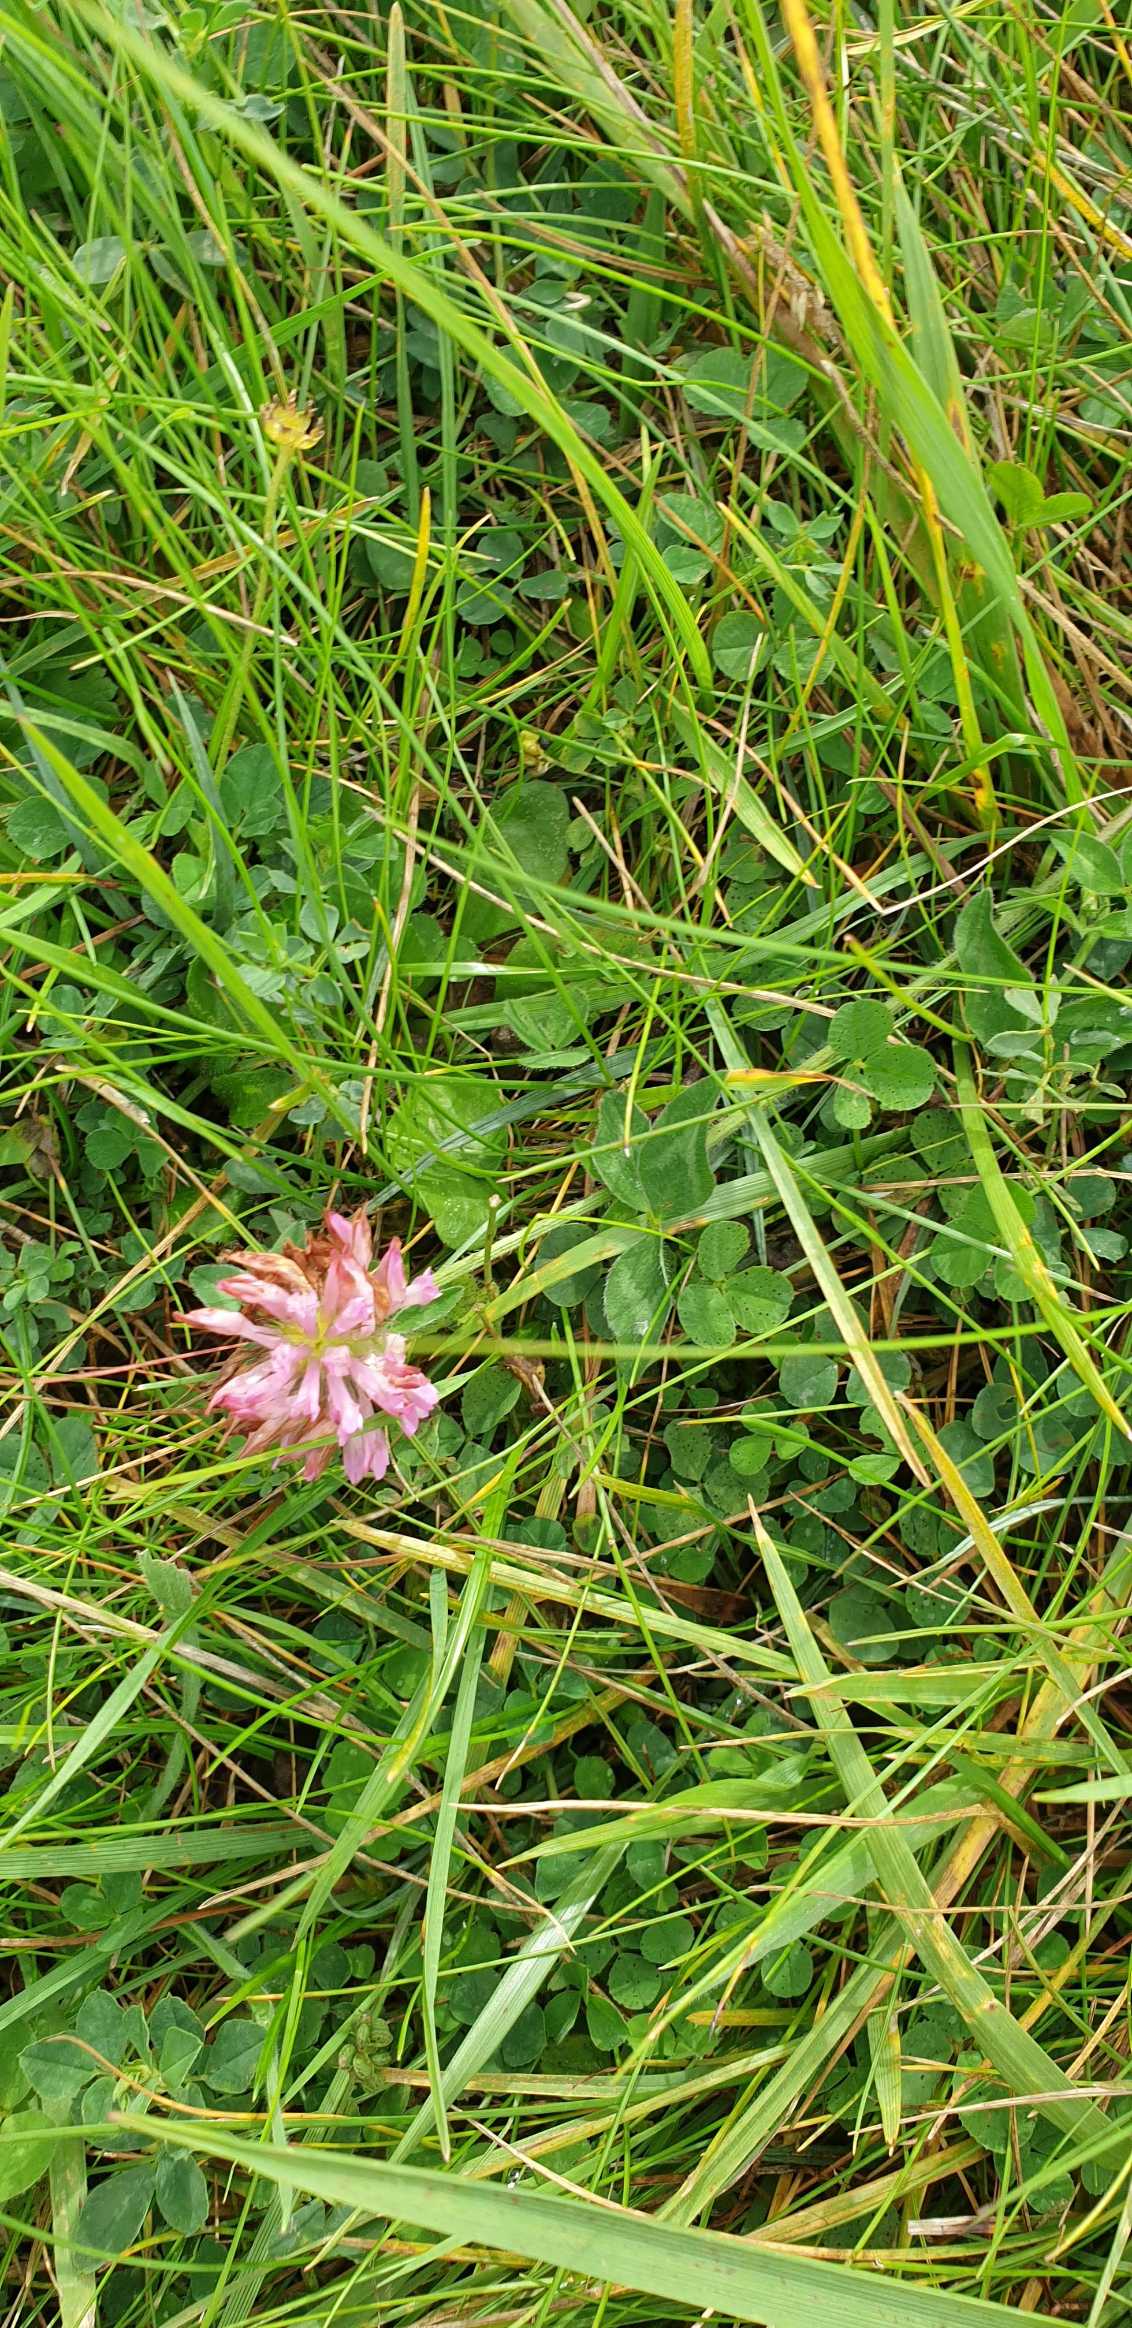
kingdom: Plantae
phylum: Tracheophyta
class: Magnoliopsida
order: Fabales
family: Fabaceae
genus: Trifolium
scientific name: Trifolium pratense
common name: Rød-kløver
